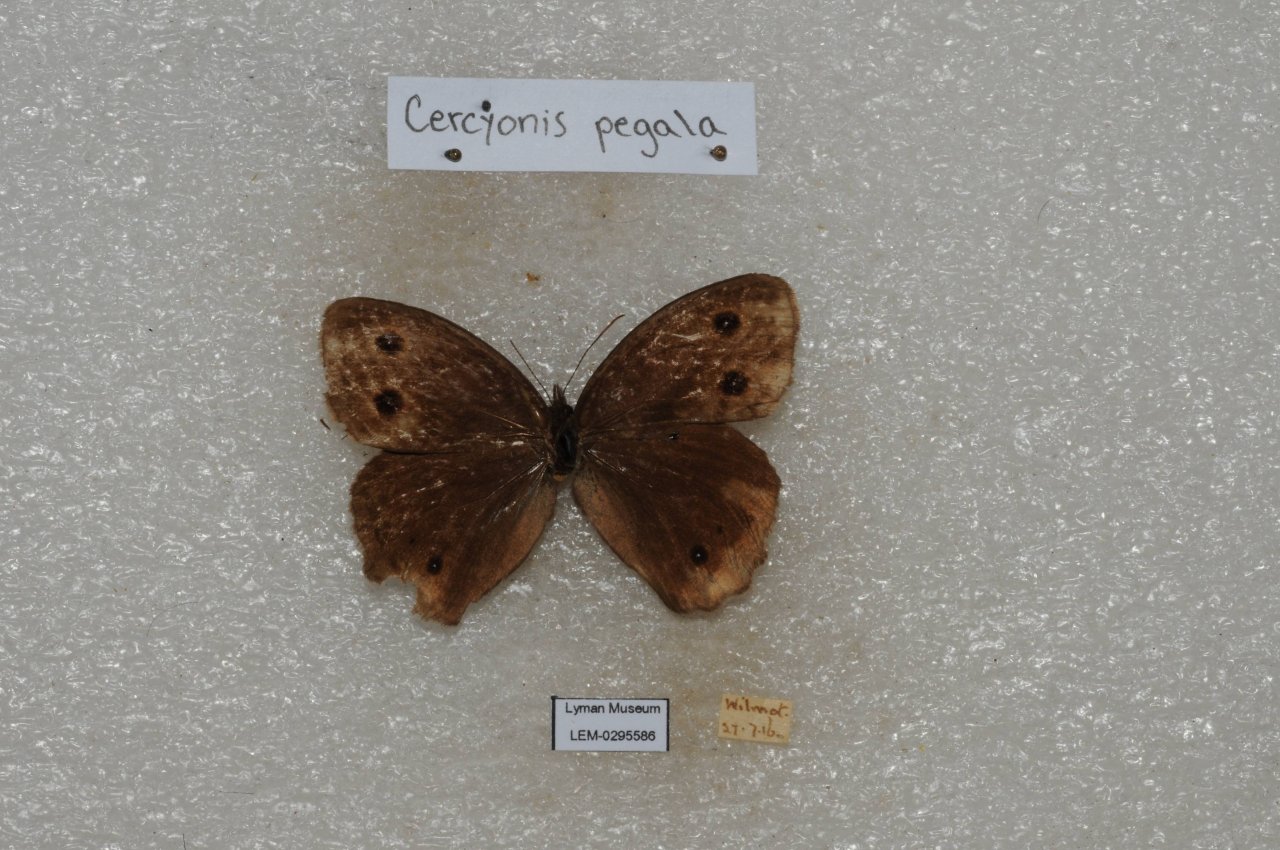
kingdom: Animalia
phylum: Arthropoda
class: Insecta
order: Lepidoptera
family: Nymphalidae
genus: Cercyonis
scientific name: Cercyonis pegala
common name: Common Wood-Nymph
